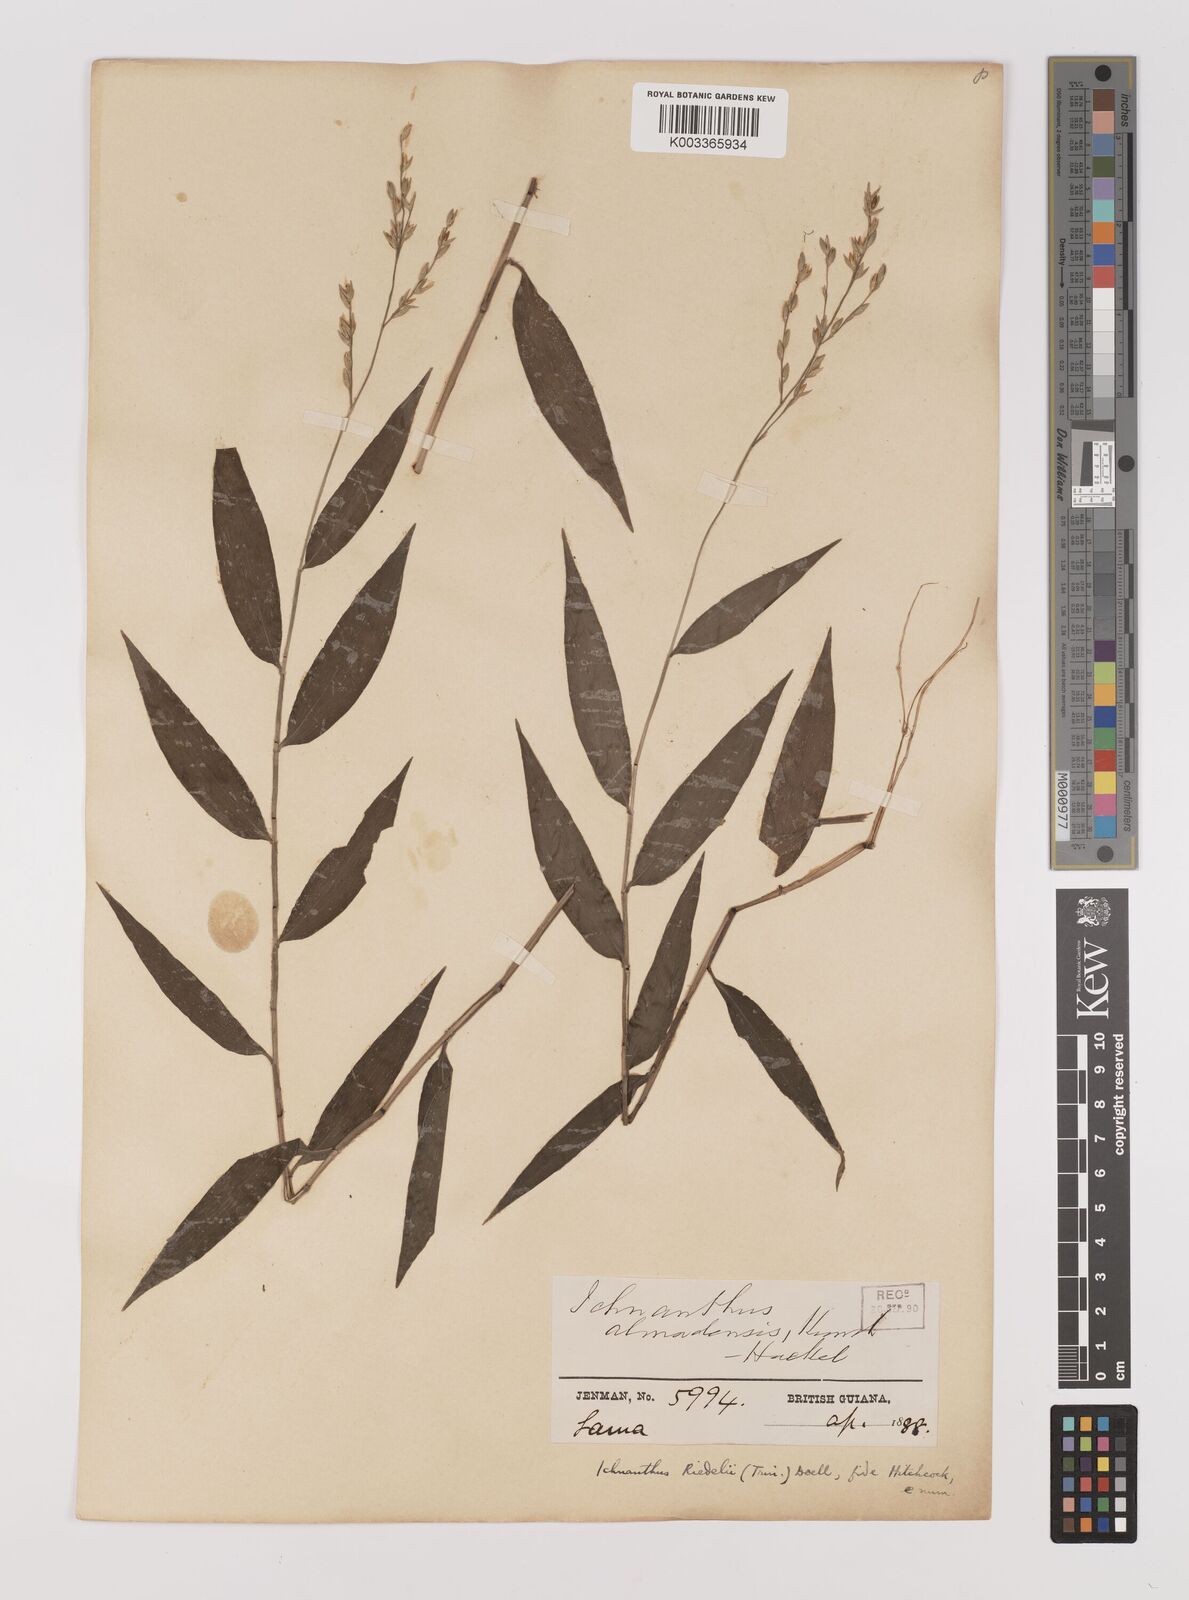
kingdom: Plantae
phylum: Tracheophyta
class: Liliopsida
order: Poales
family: Poaceae
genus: Ichnanthus
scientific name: Ichnanthus nemoralis
